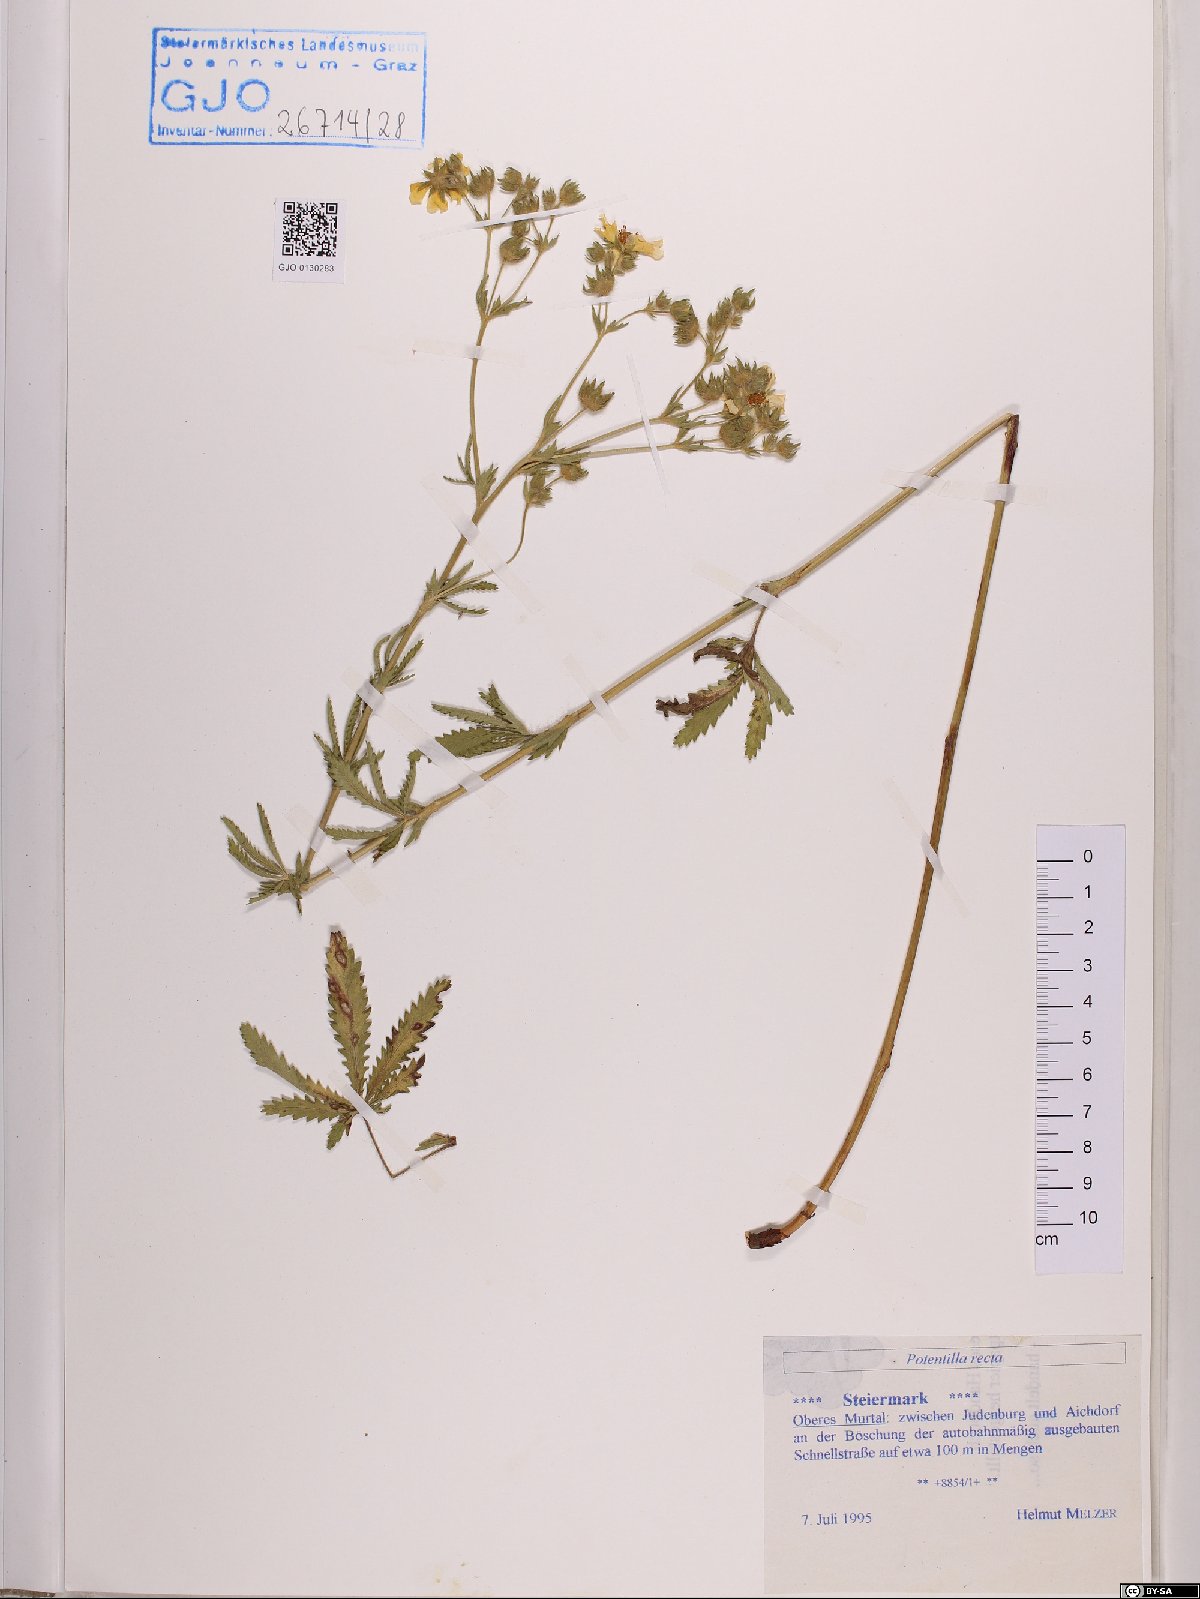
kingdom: Plantae
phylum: Tracheophyta
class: Magnoliopsida
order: Rosales
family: Rosaceae
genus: Potentilla
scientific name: Potentilla recta
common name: Sulphur cinquefoil
